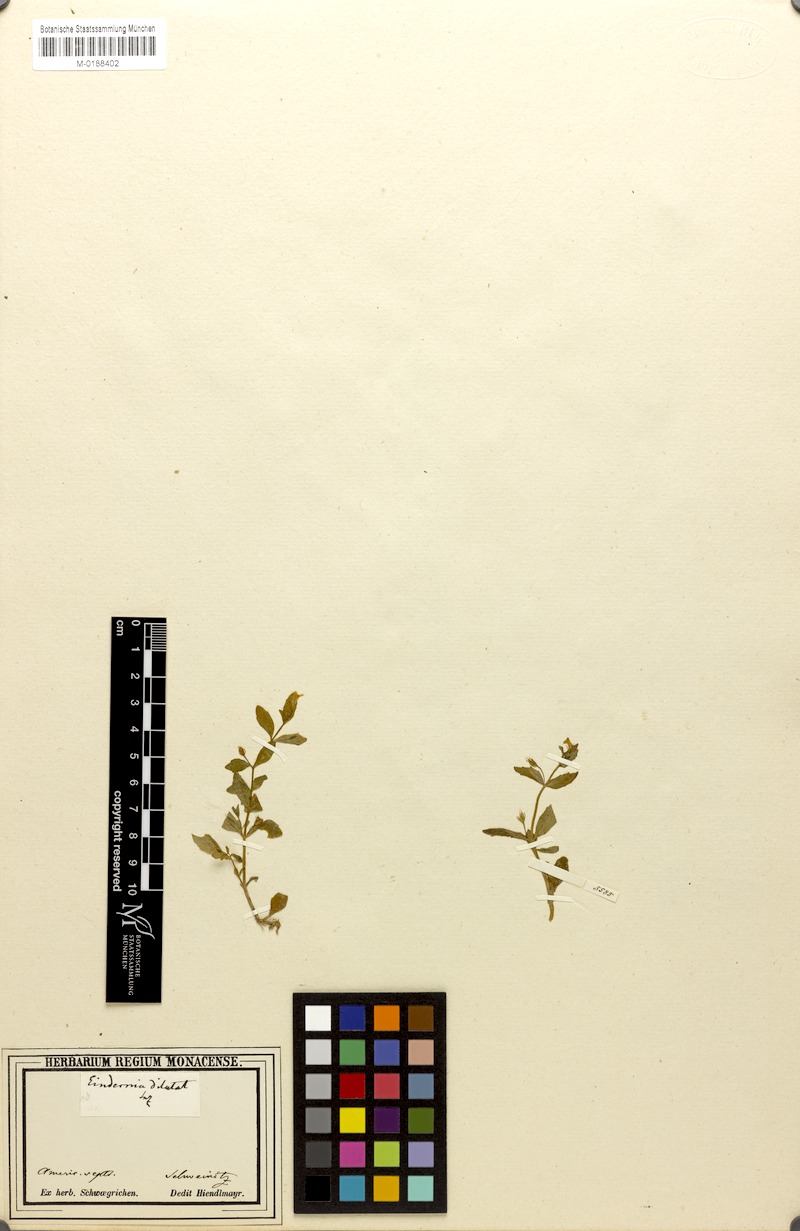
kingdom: Plantae
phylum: Tracheophyta
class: Magnoliopsida
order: Lamiales
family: Linderniaceae
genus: Lindernia
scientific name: Lindernia dubia
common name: Annual false pimpernel
